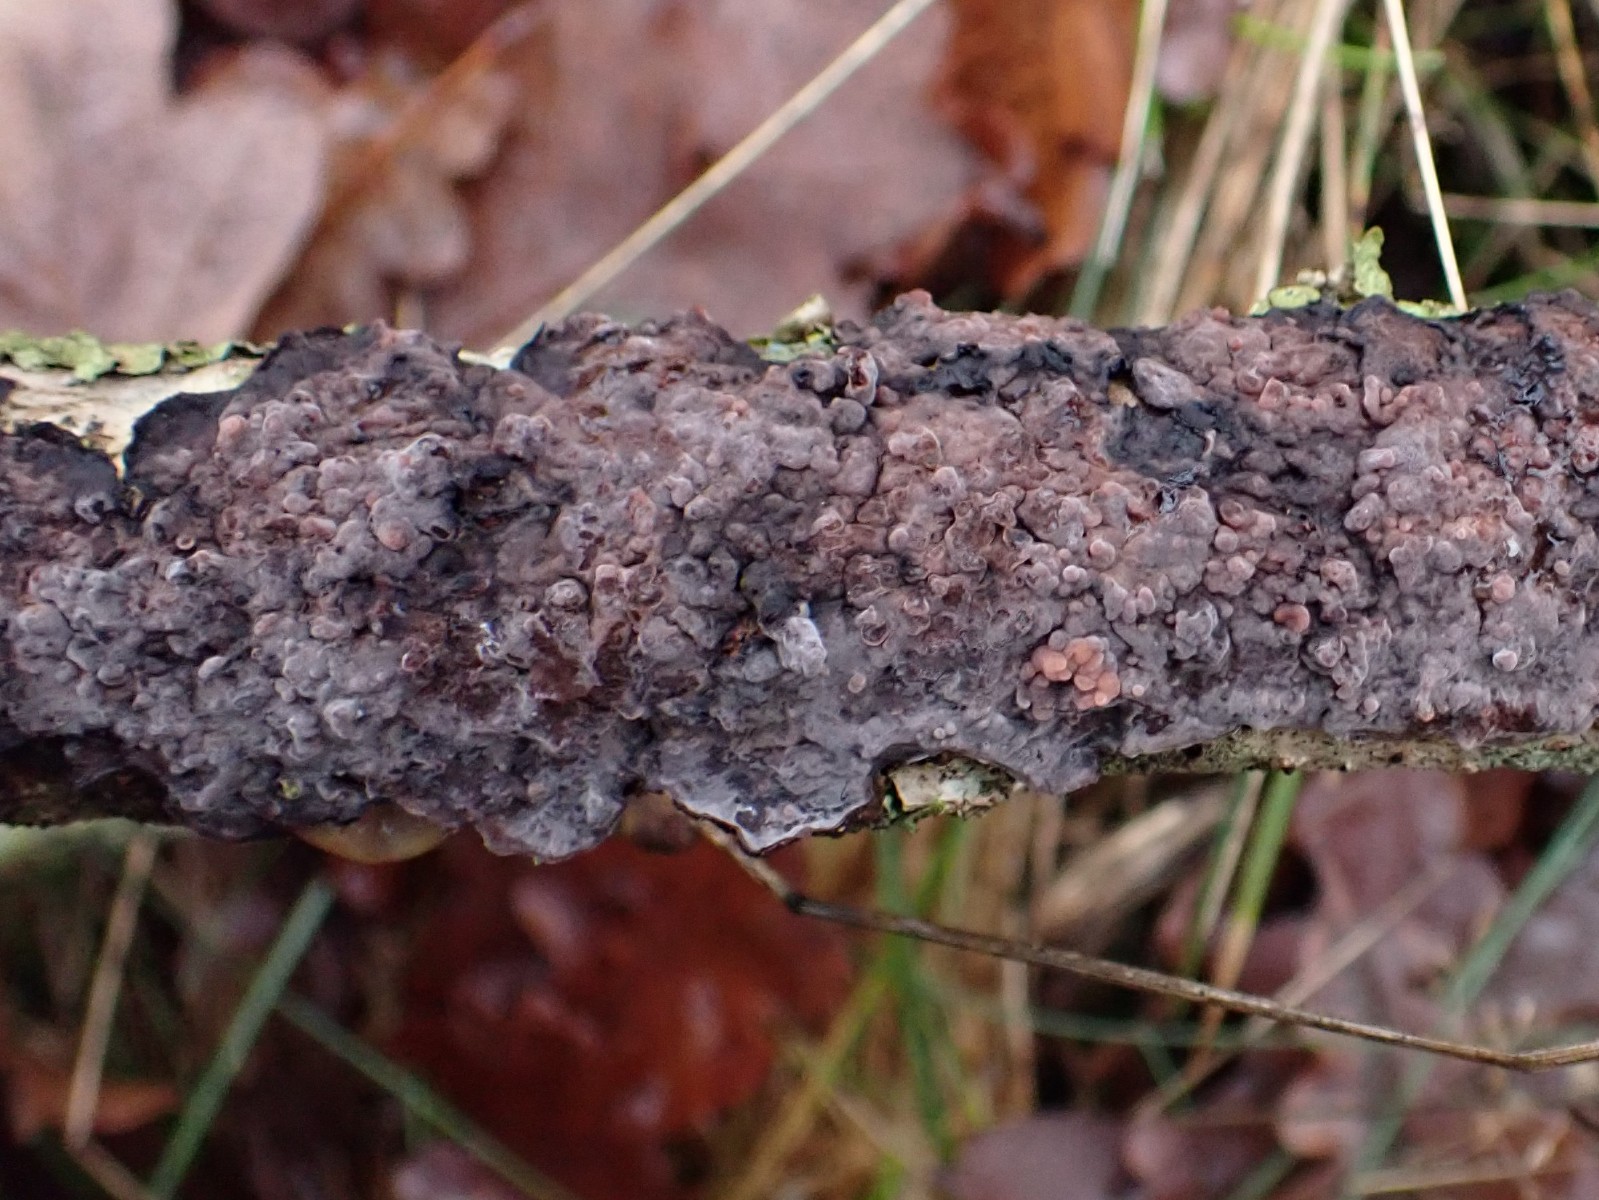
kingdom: Fungi
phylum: Basidiomycota
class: Agaricomycetes
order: Russulales
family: Peniophoraceae
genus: Peniophora
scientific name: Peniophora quercina
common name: ege-voksskind
